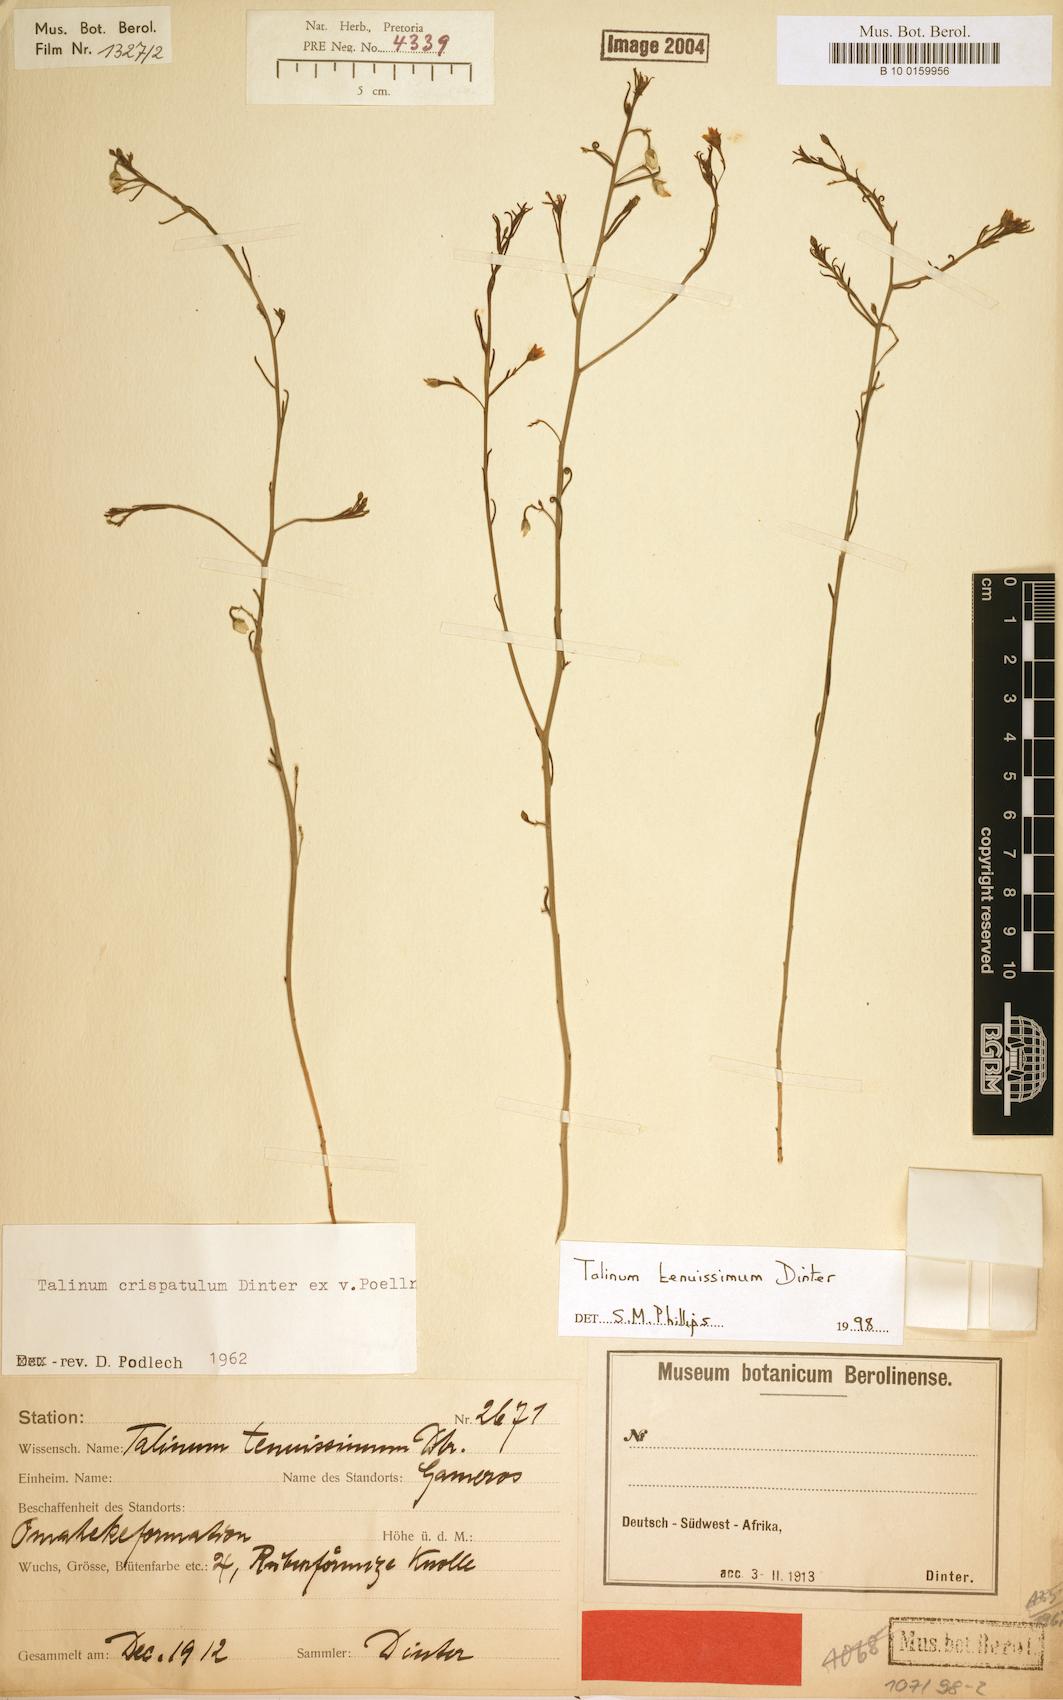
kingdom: Plantae
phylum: Tracheophyta
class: Magnoliopsida
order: Caryophyllales
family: Talinaceae
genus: Talinum
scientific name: Talinum tenuissimum
